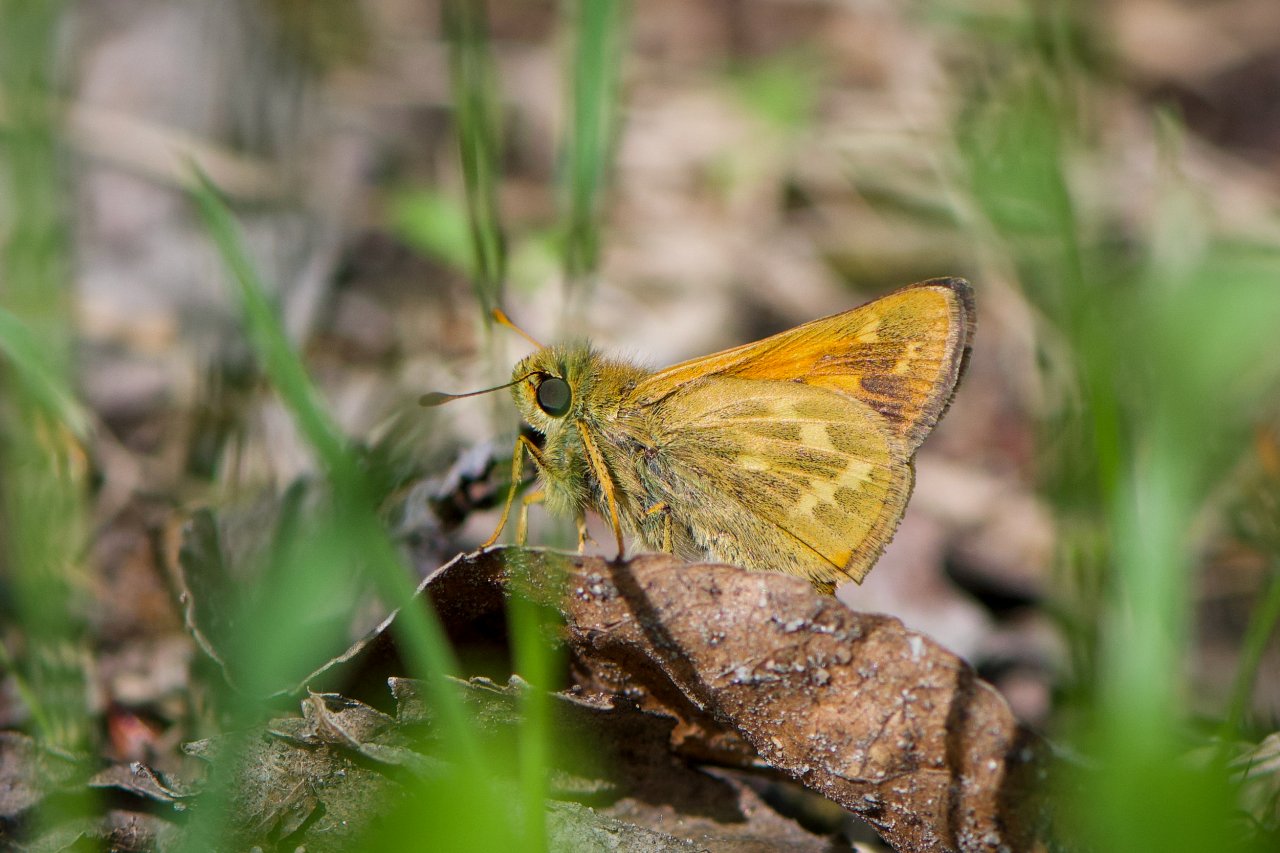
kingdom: Animalia
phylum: Arthropoda
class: Insecta
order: Lepidoptera
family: Hesperiidae
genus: Hesperia
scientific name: Hesperia sassacus
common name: Sassacus Skipper
